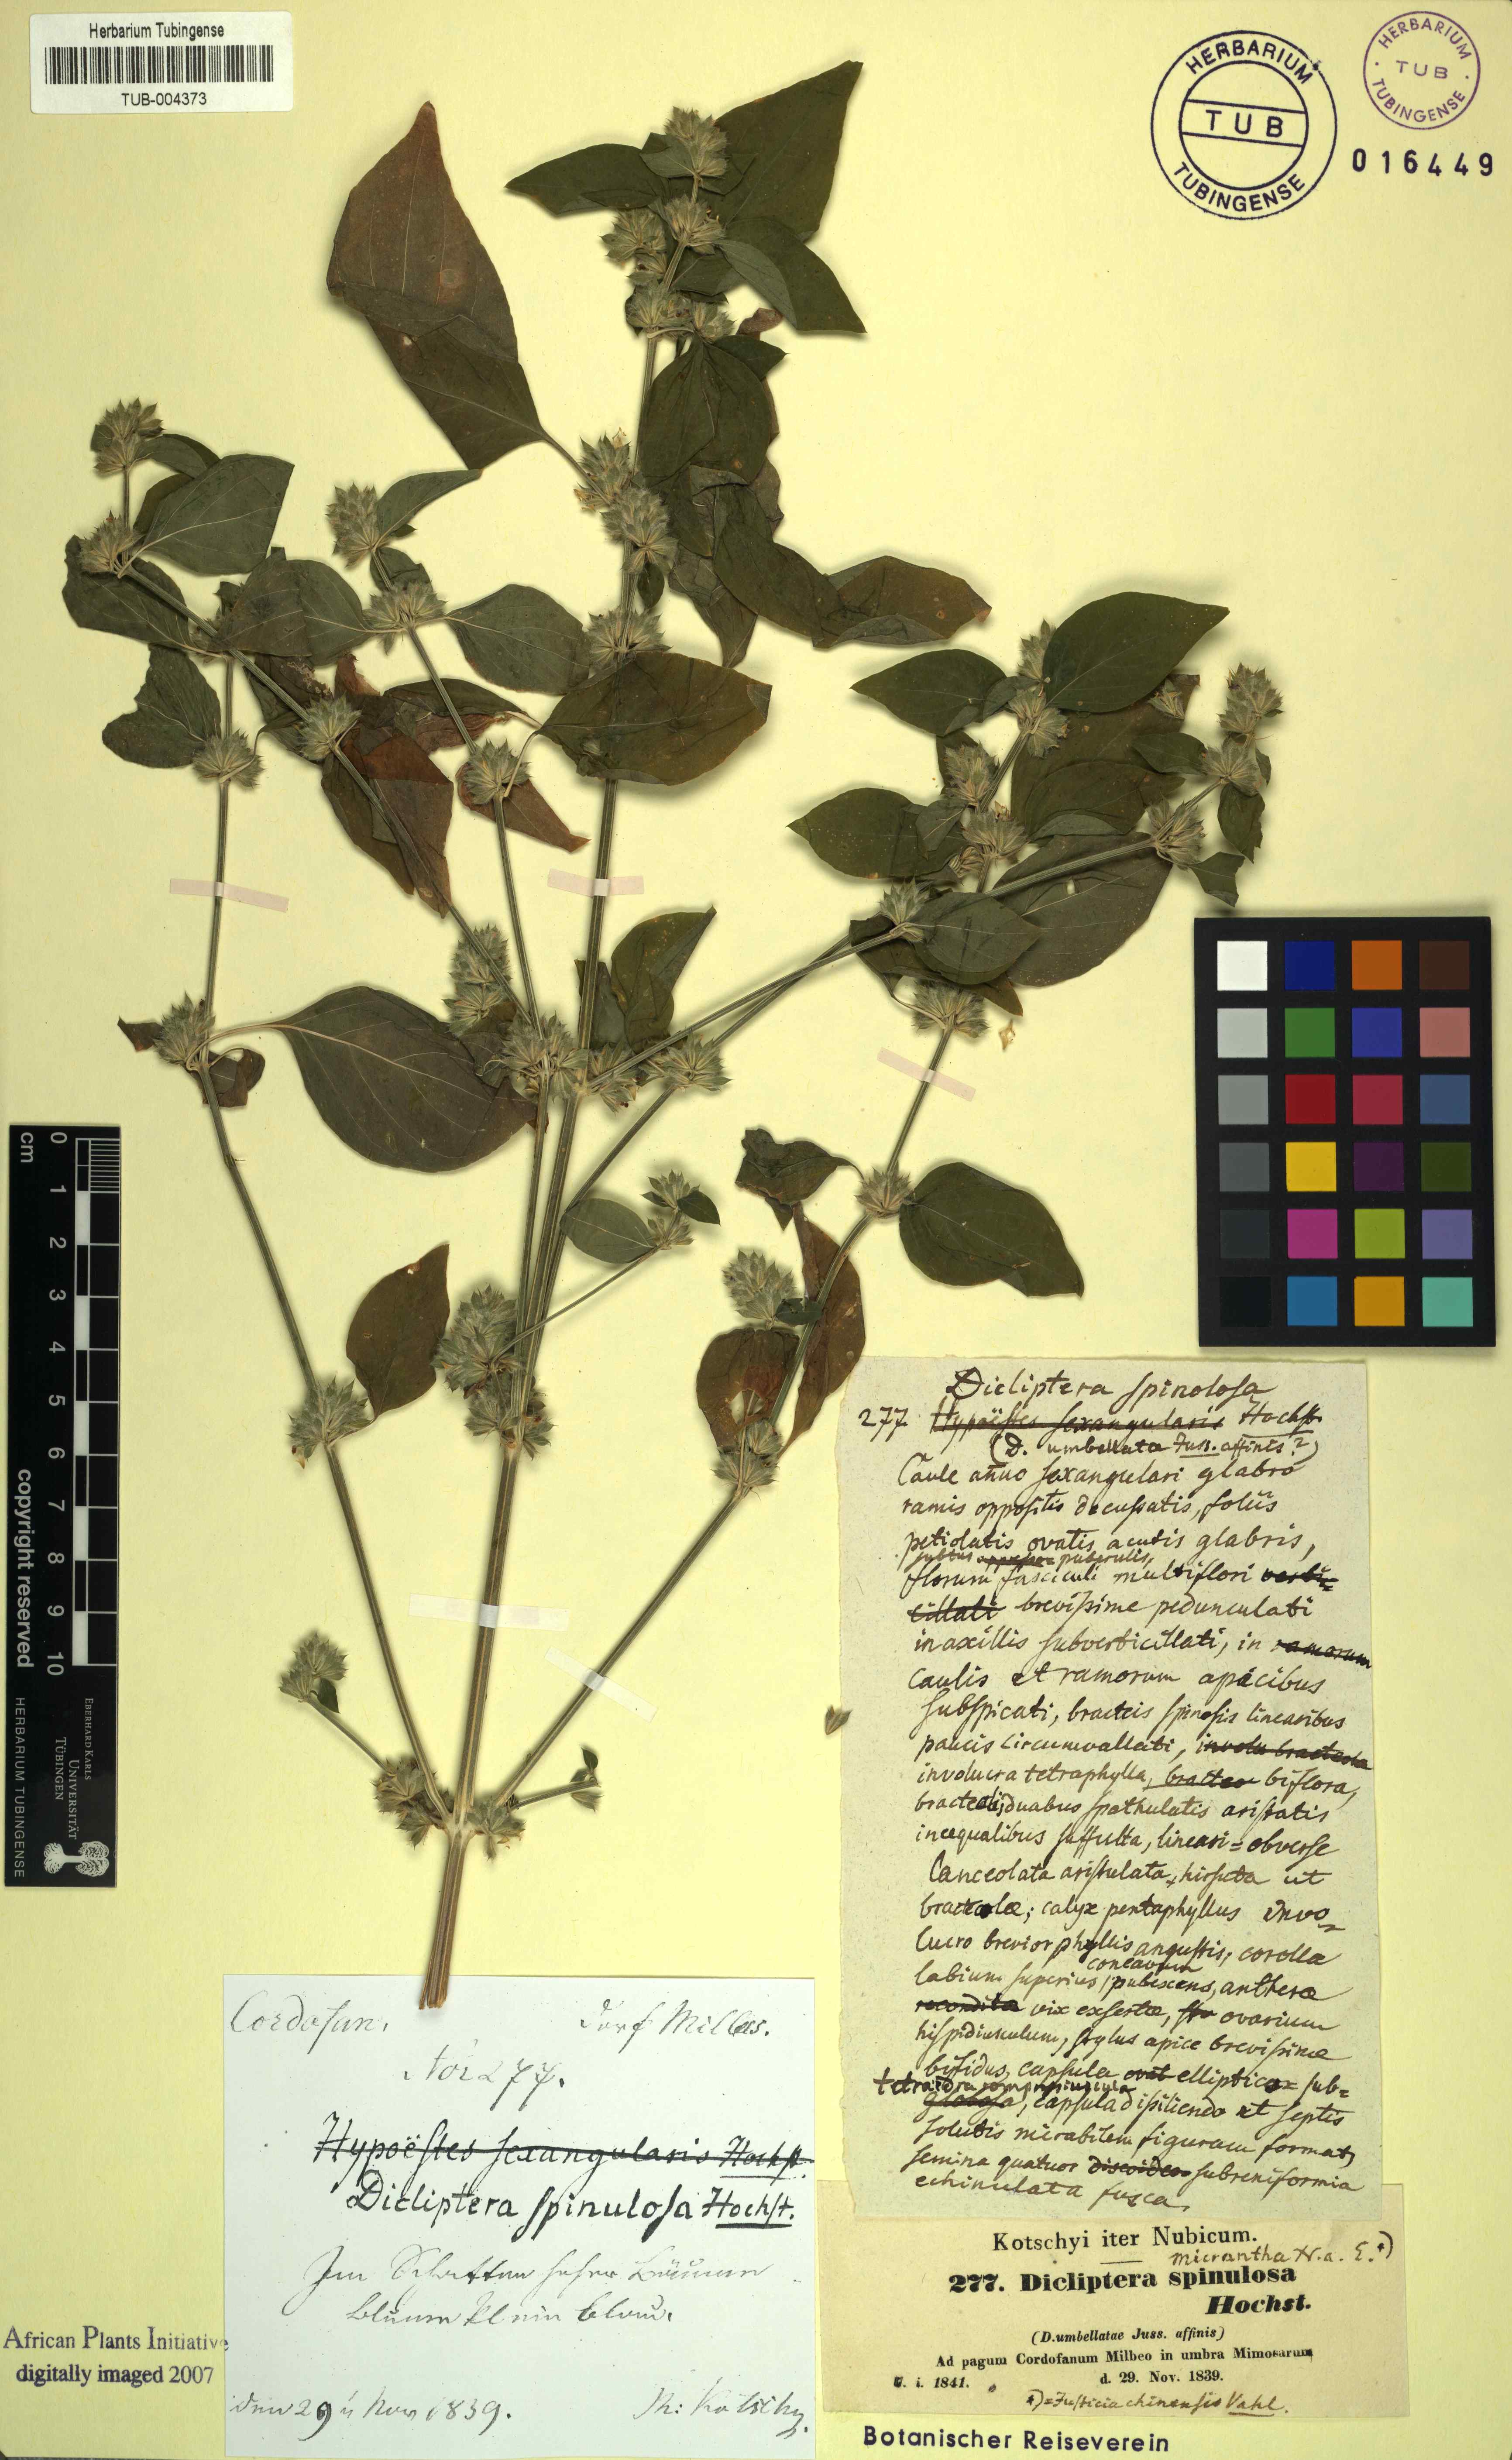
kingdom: Plantae
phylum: Tracheophyta
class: Magnoliopsida
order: Lamiales
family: Acanthaceae
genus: Dicliptera
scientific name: Dicliptera verticillata
